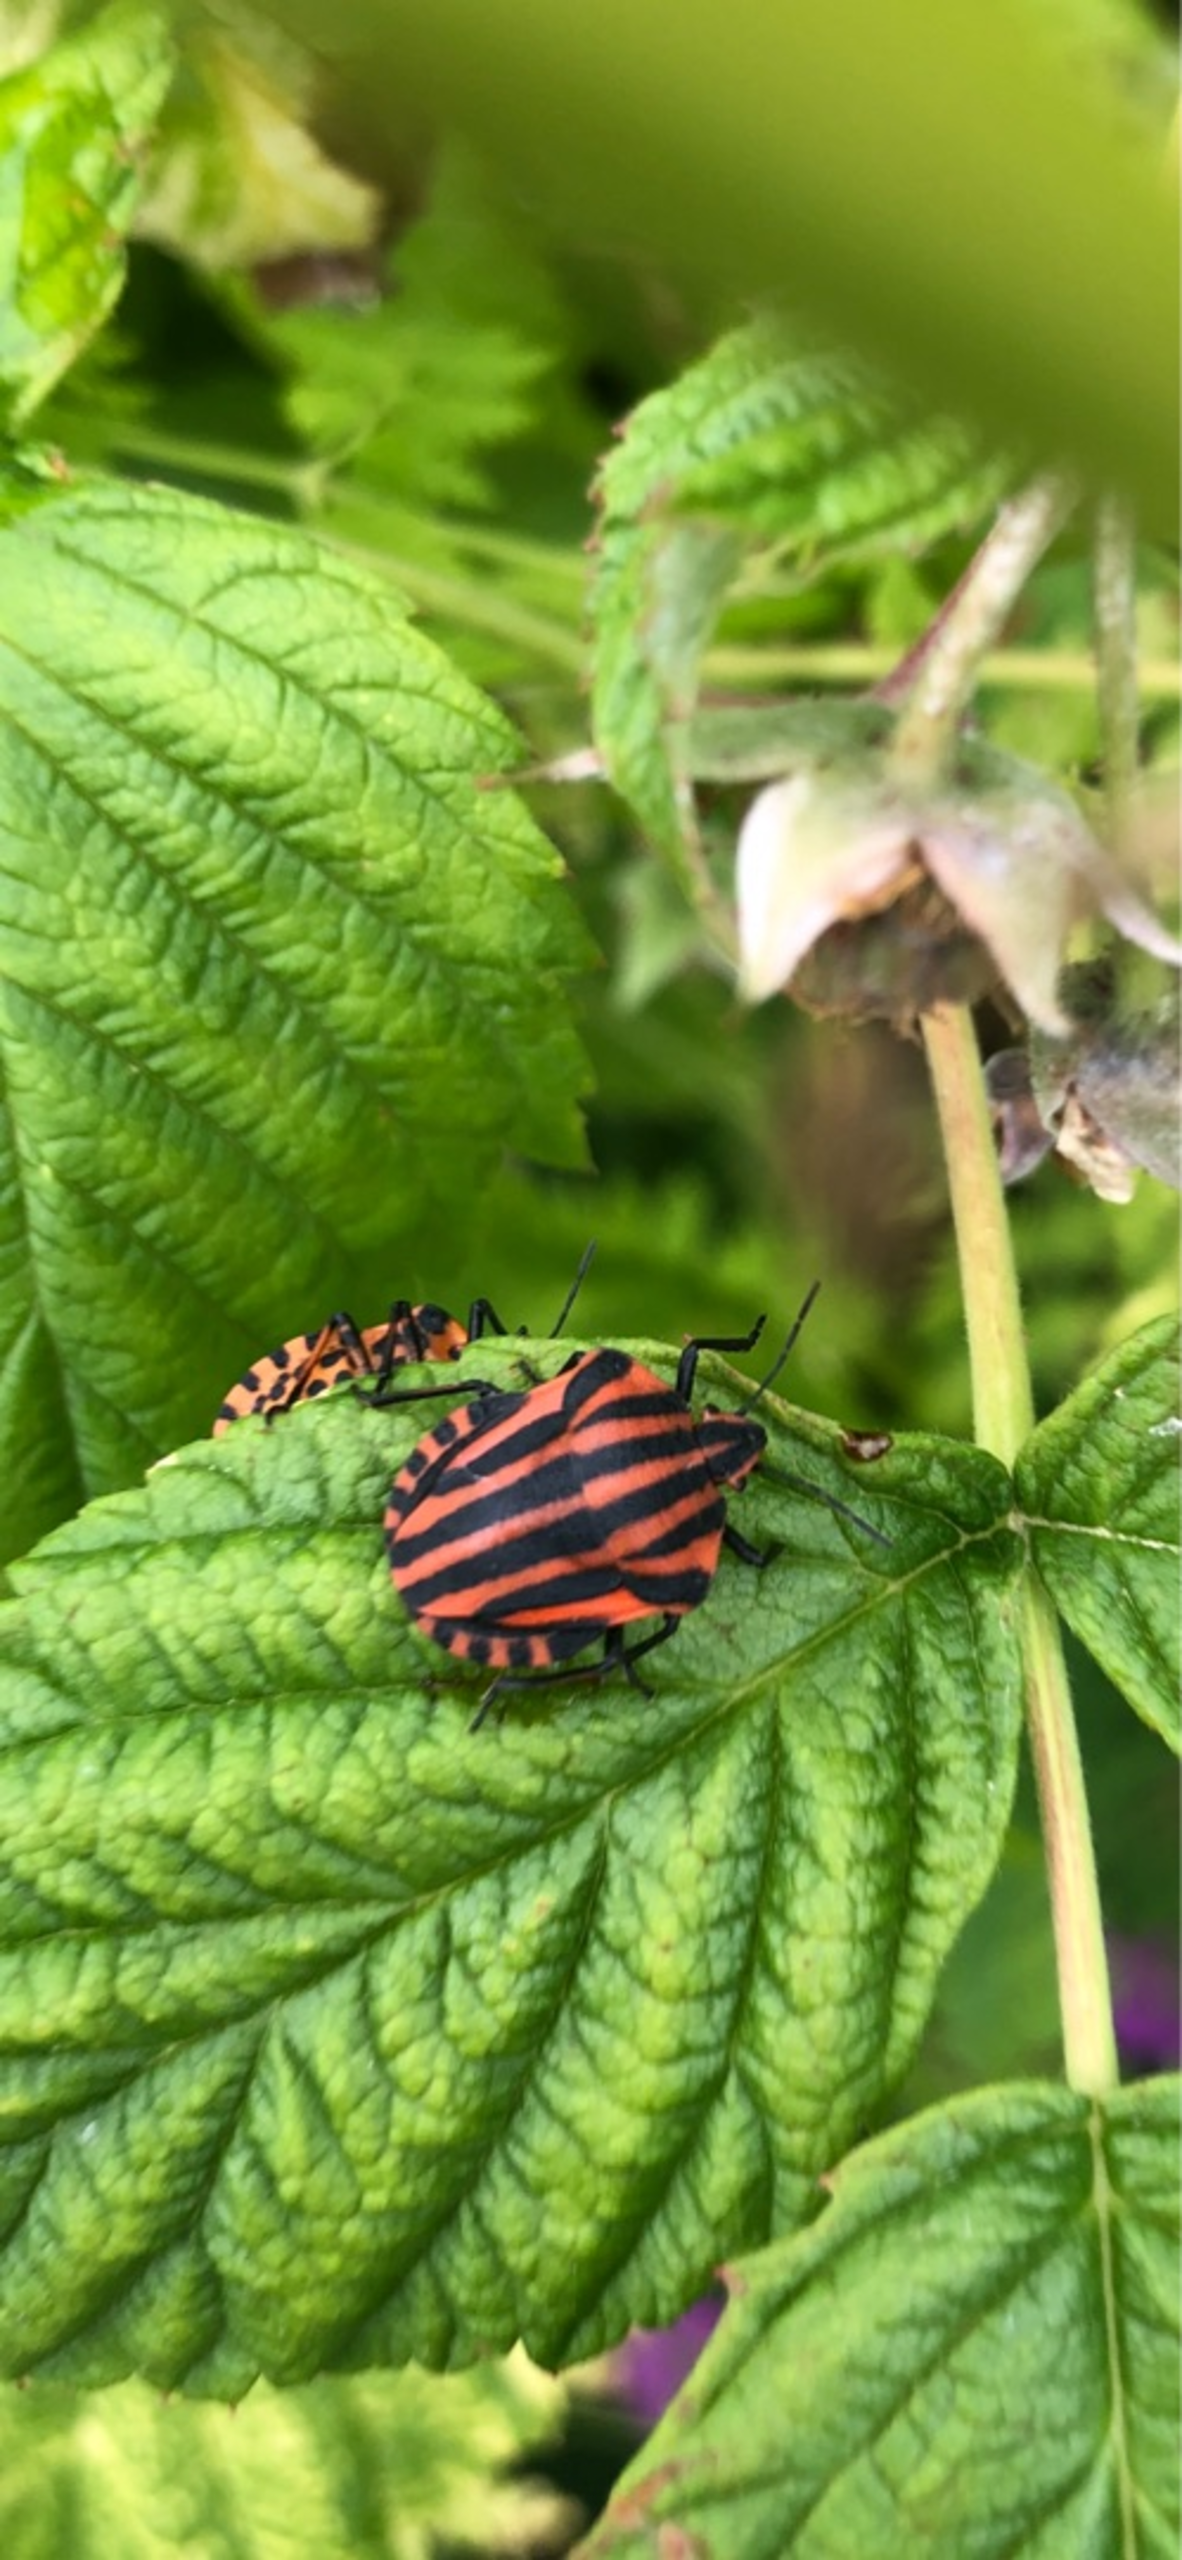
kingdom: Animalia
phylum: Arthropoda
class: Insecta
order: Hemiptera
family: Pentatomidae
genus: Graphosoma
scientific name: Graphosoma italicum
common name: Stribetæge
